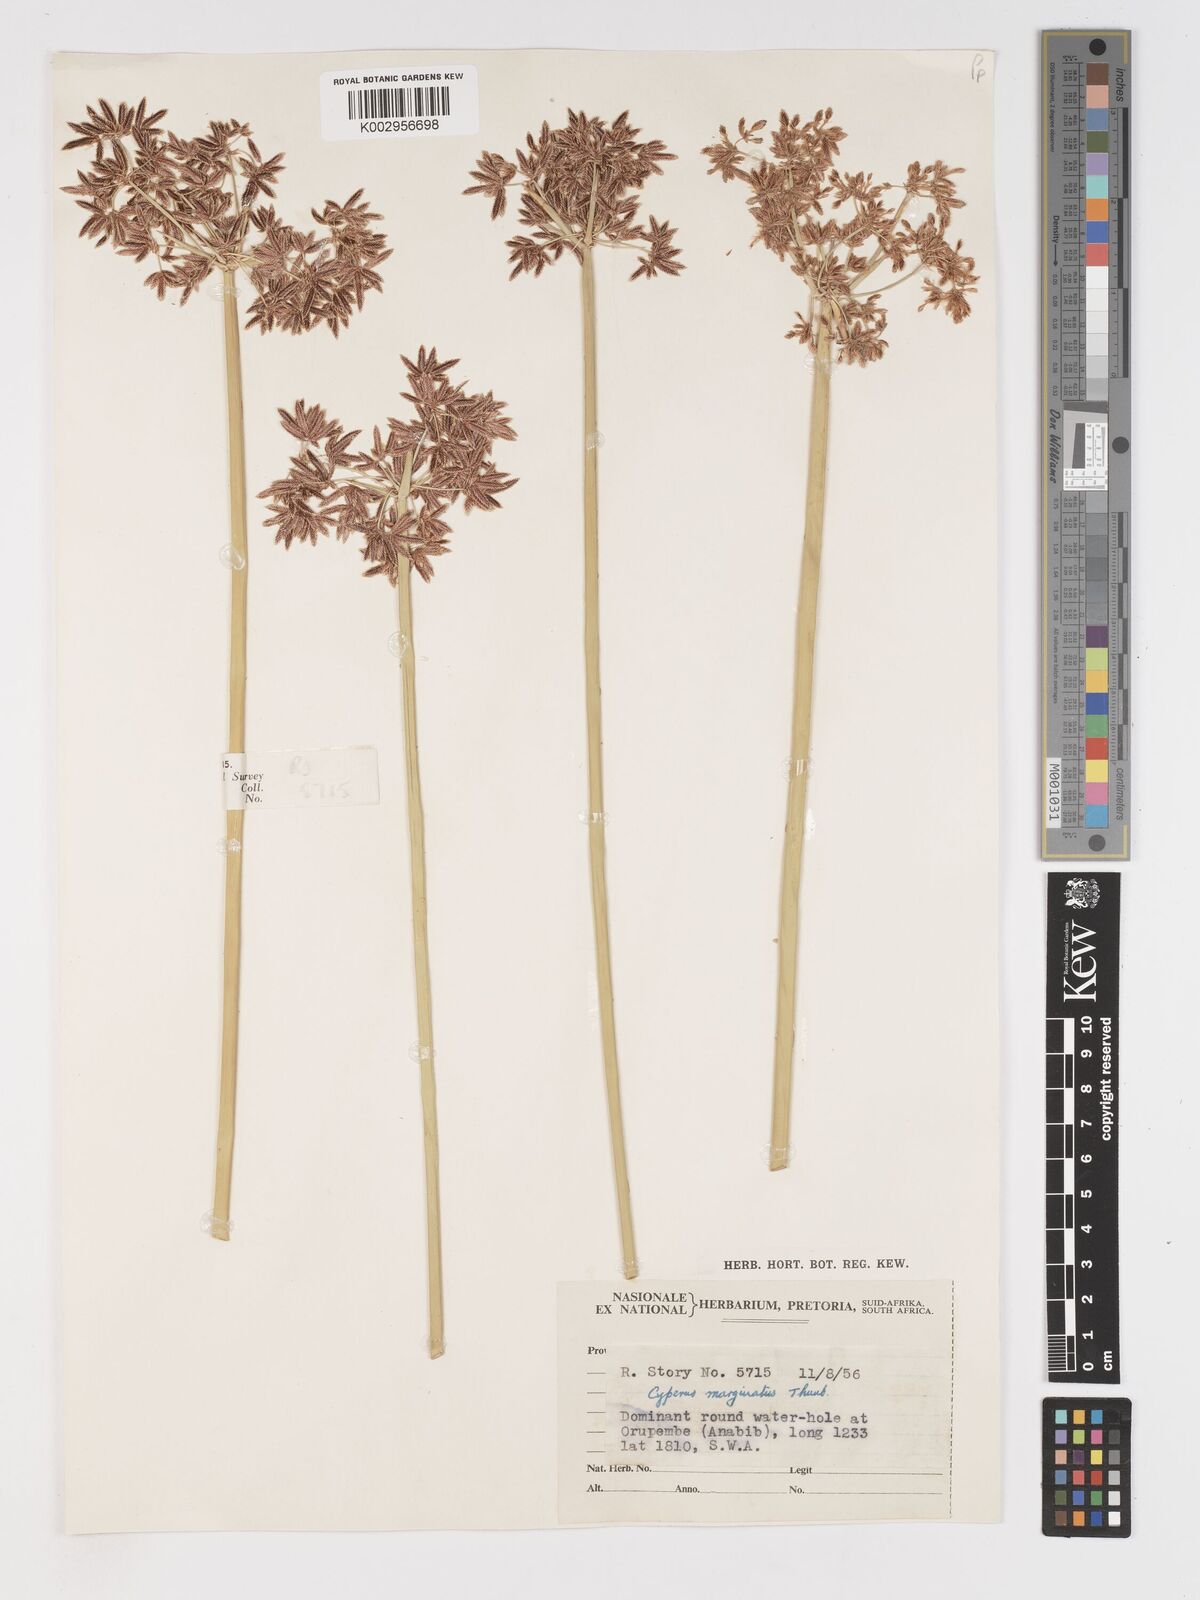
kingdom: Plantae
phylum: Tracheophyta
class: Liliopsida
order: Poales
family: Cyperaceae
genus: Cyperus
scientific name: Cyperus marginatus
